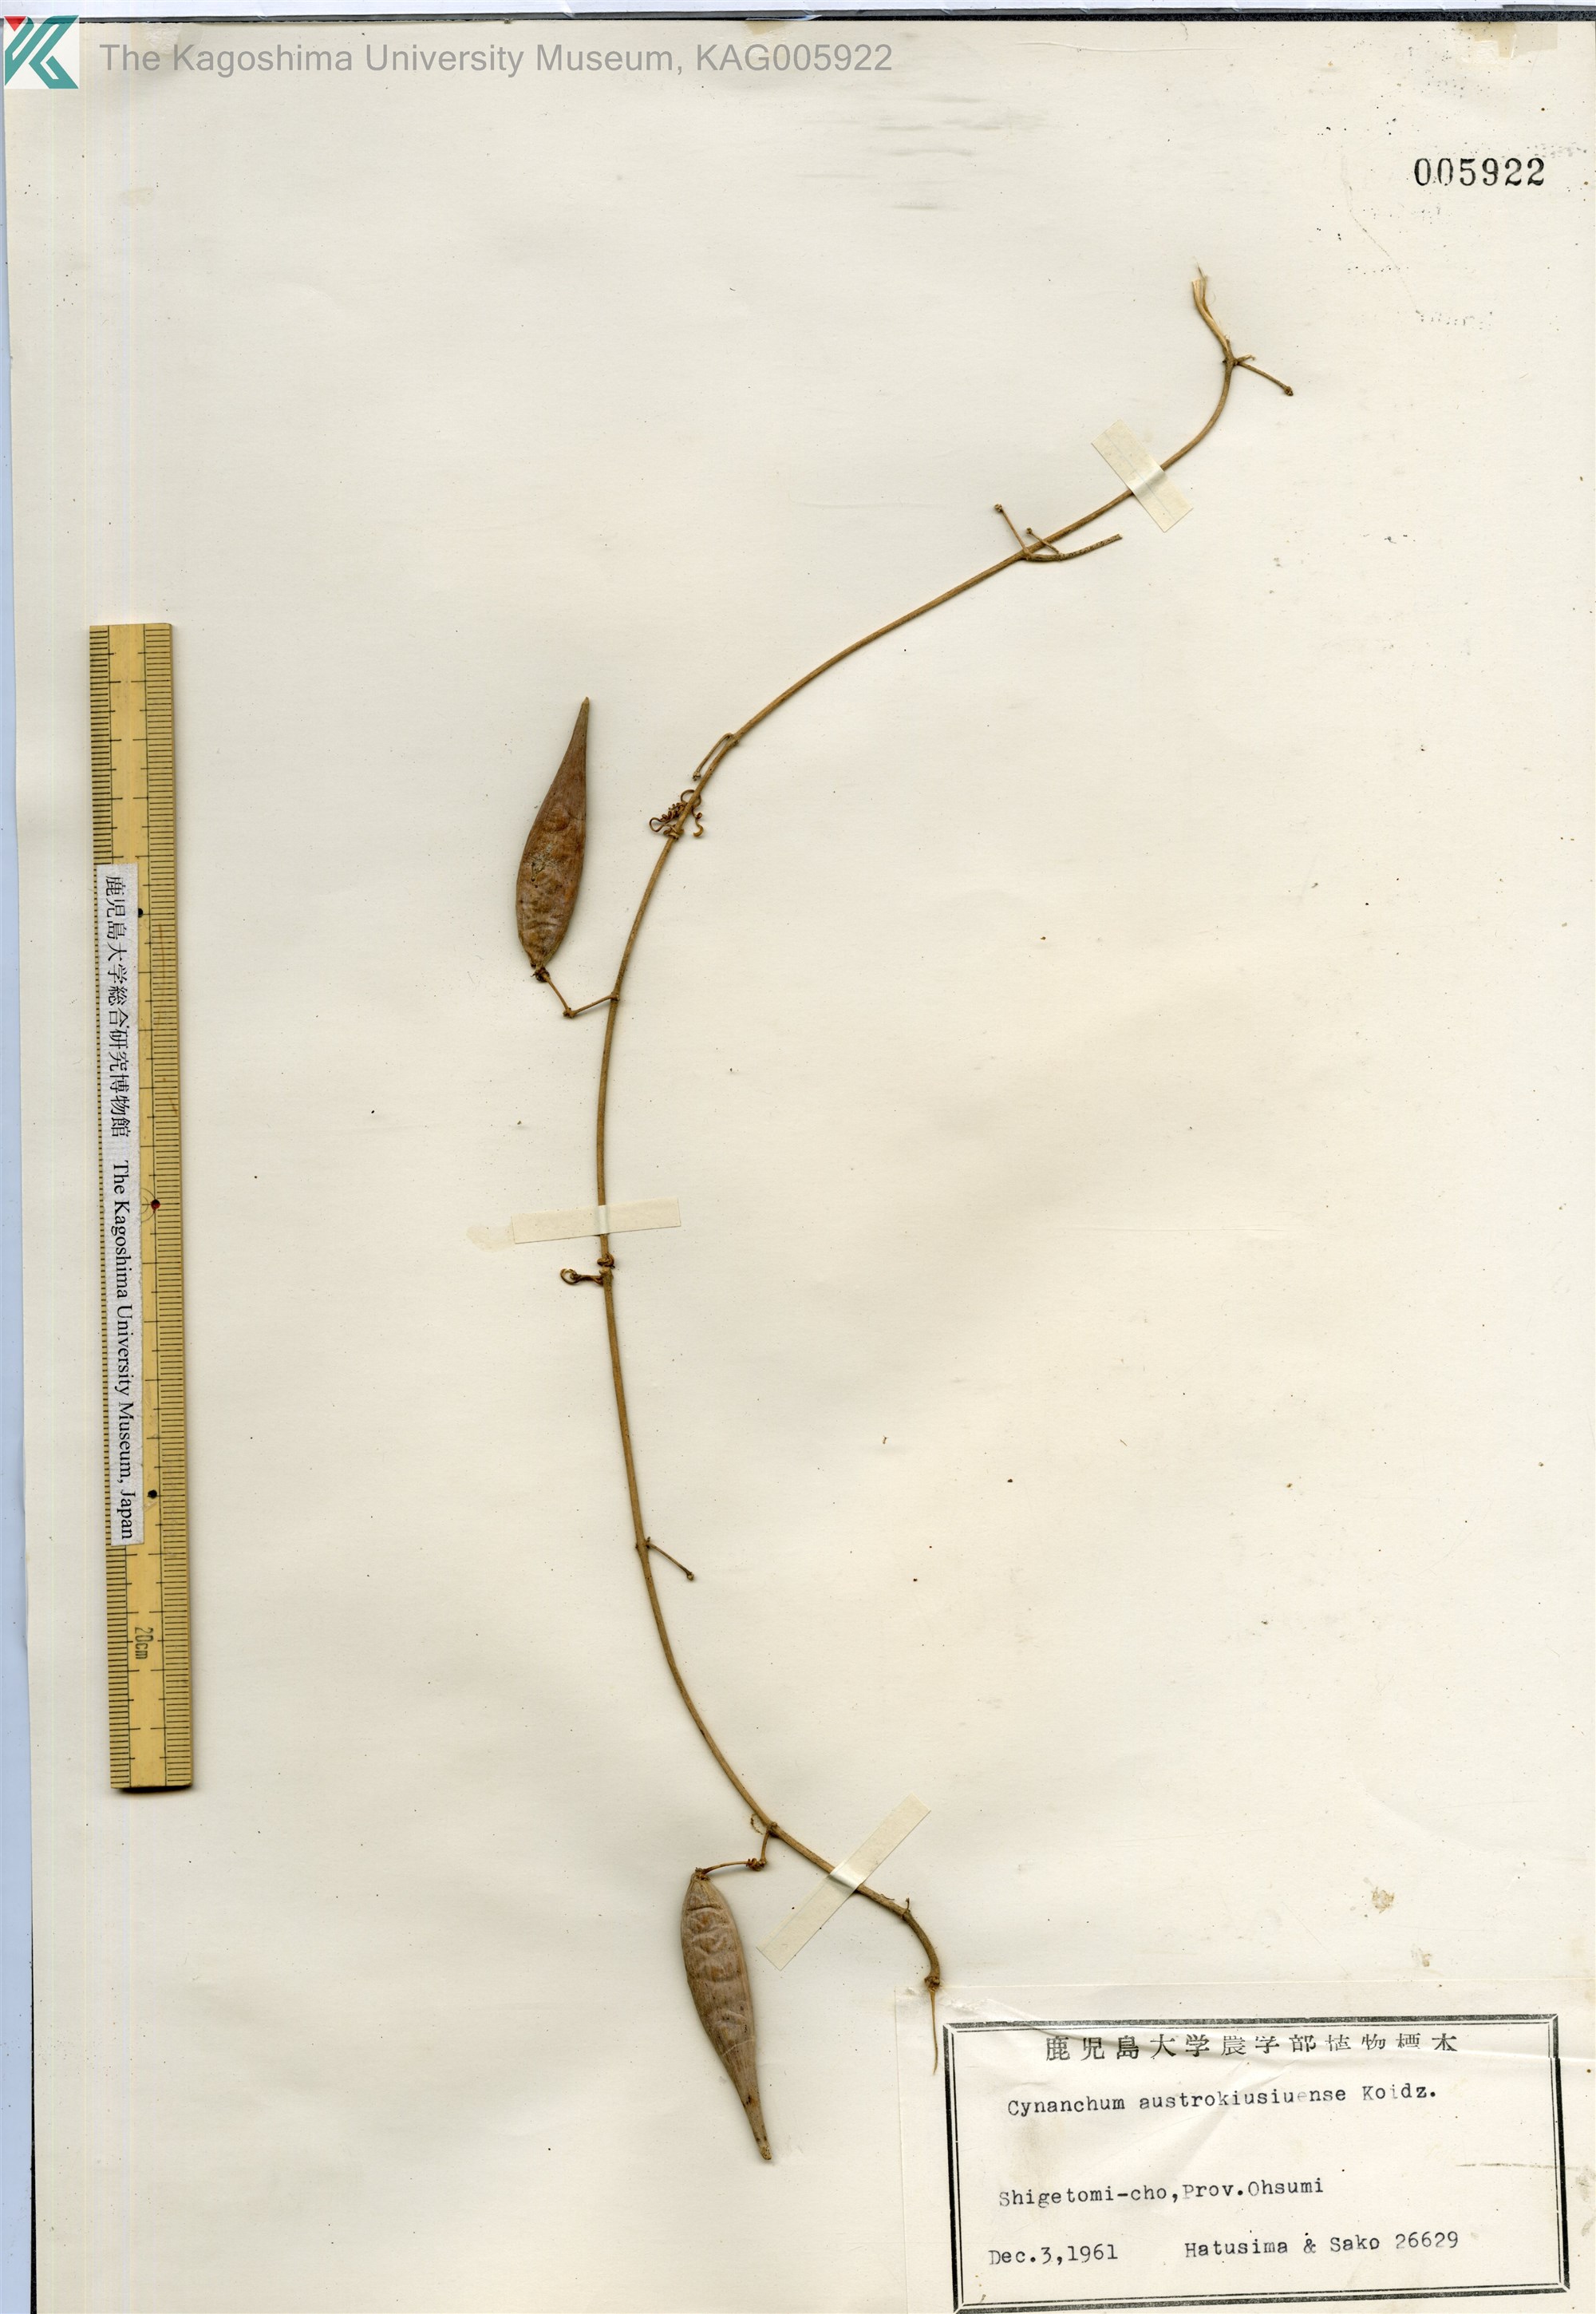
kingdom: Plantae
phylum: Tracheophyta
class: Magnoliopsida
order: Gentianales
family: Apocynaceae
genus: Vincetoxicum
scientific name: Vincetoxicum austrokiusianum
